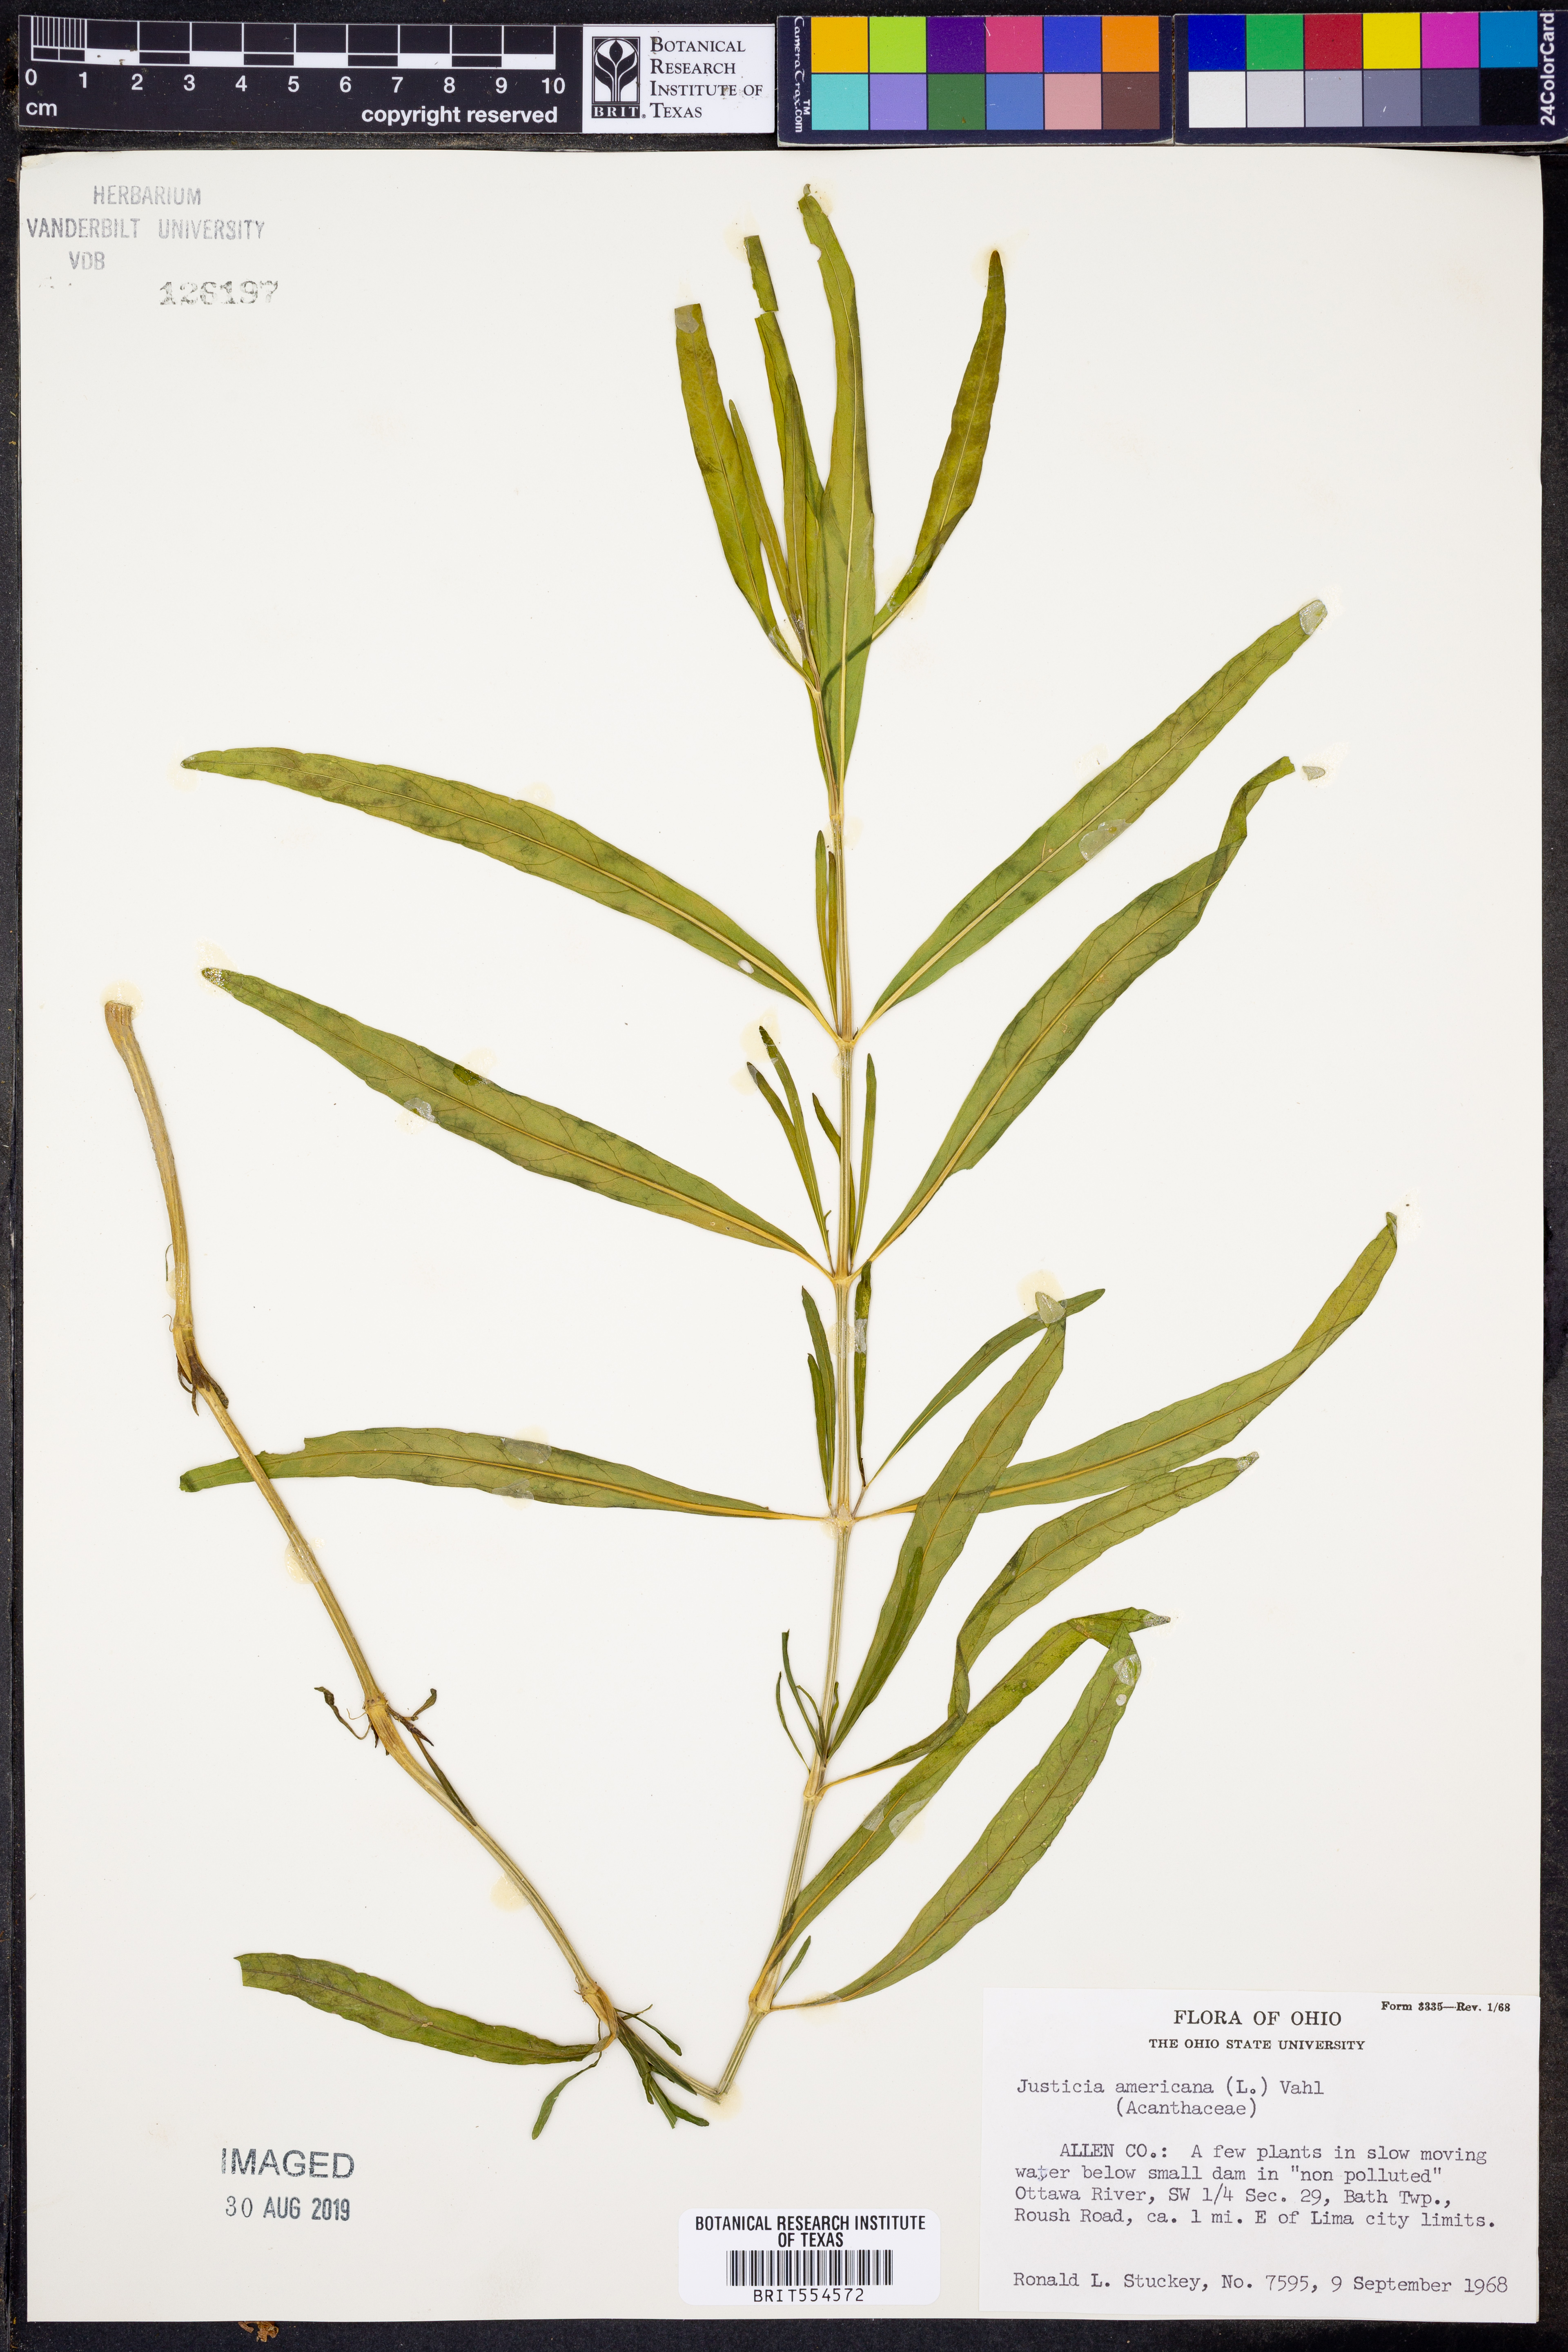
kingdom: Plantae
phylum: Tracheophyta
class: Magnoliopsida
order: Lamiales
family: Acanthaceae
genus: Dianthera
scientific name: Dianthera americana
